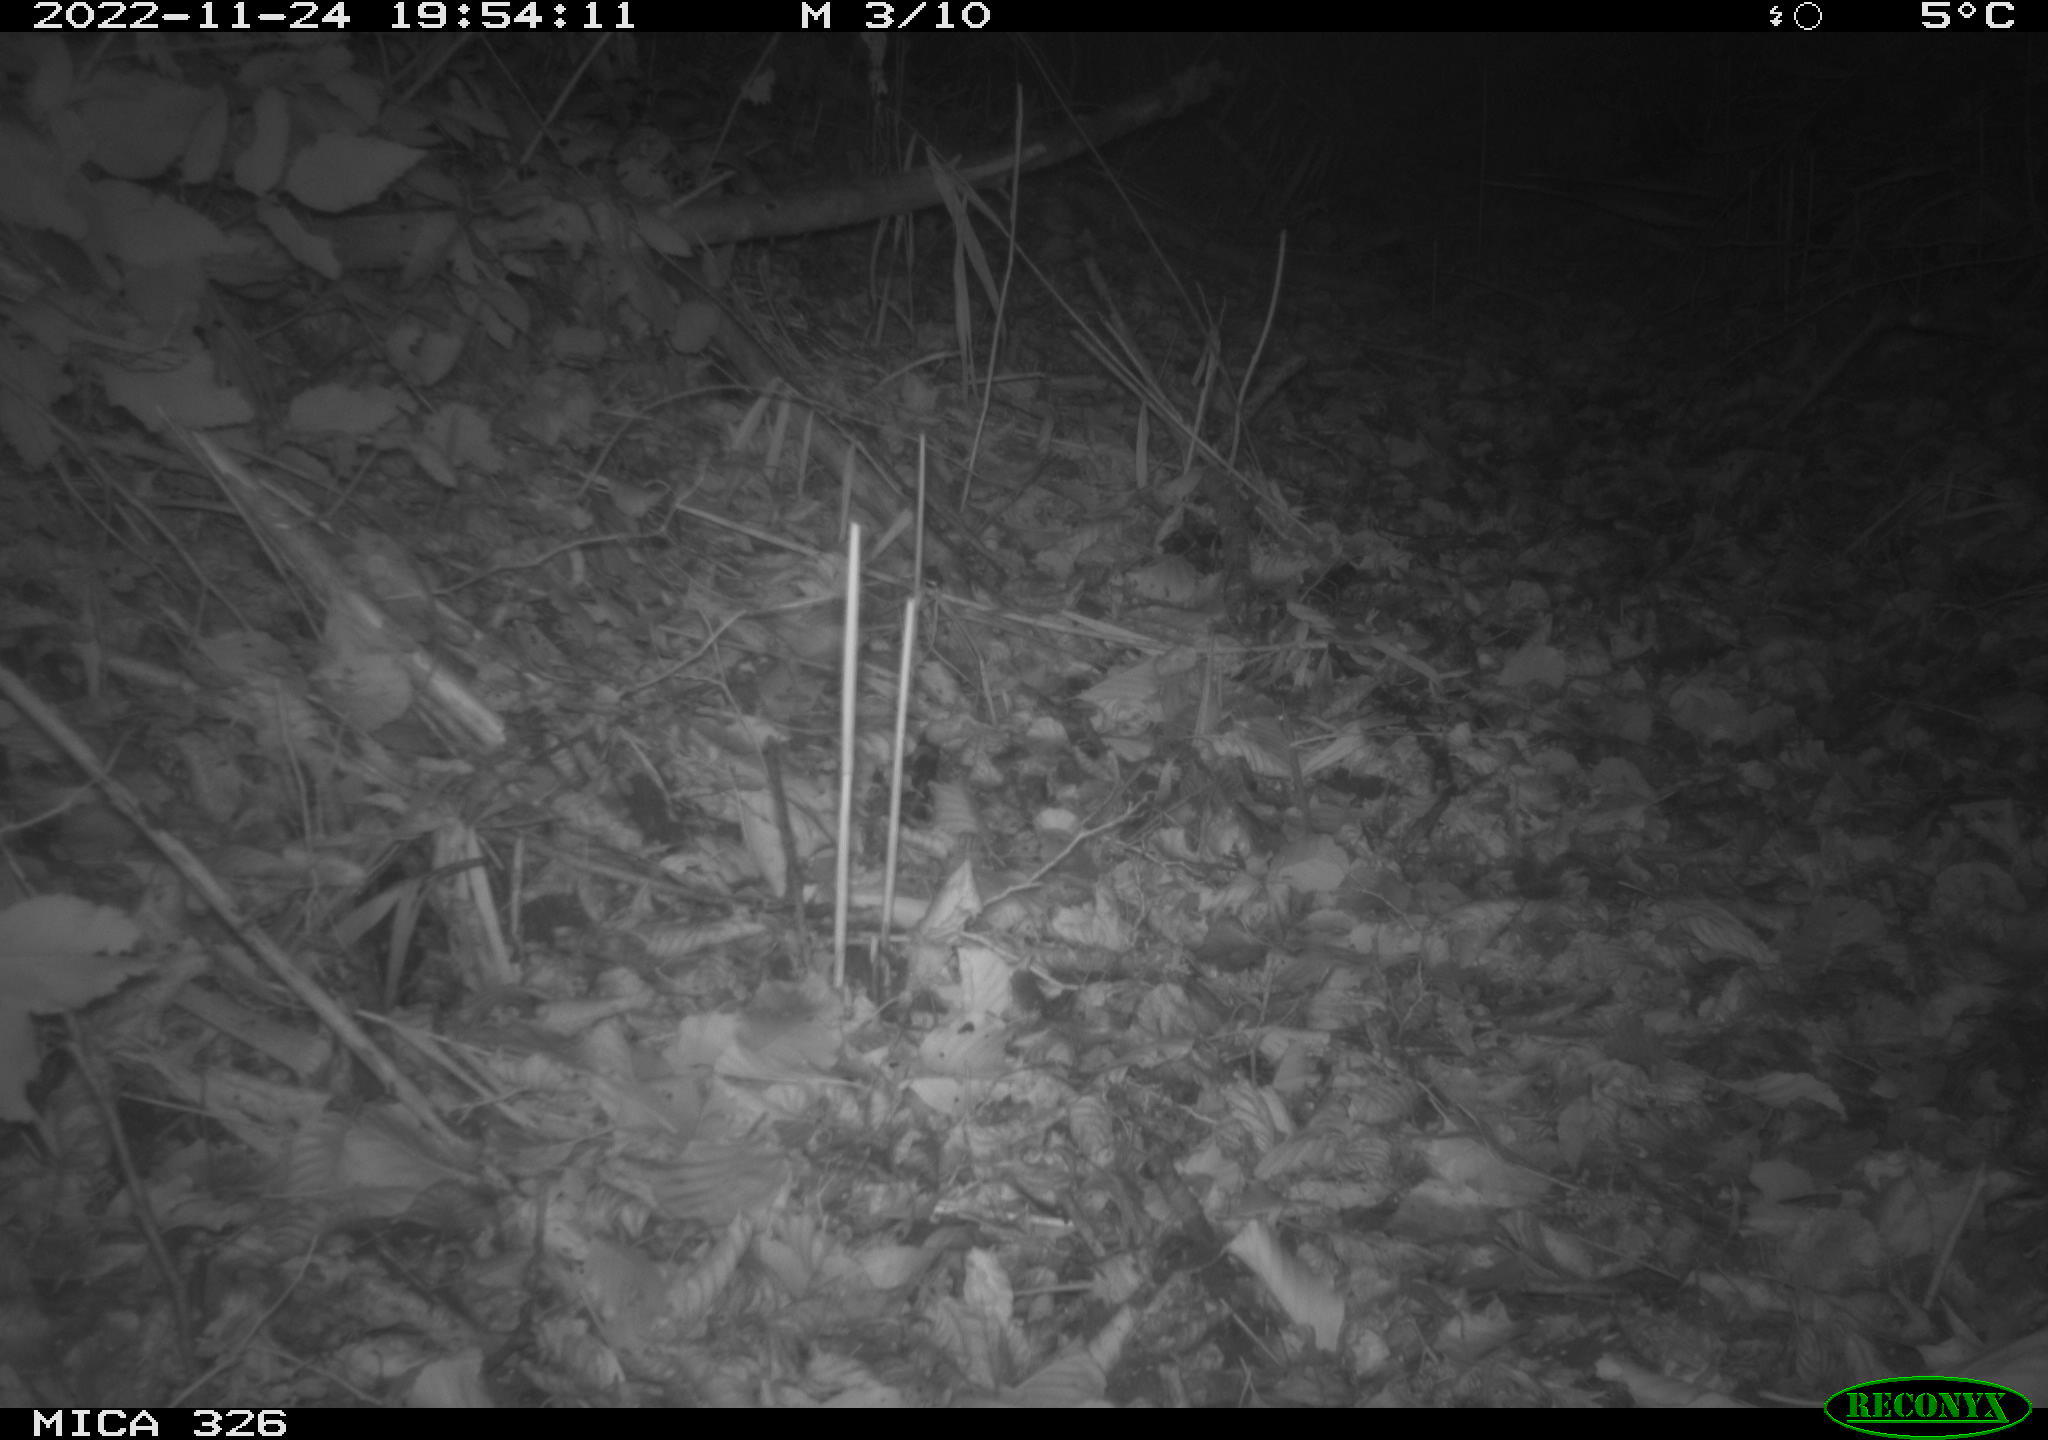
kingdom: Animalia
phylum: Chordata
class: Mammalia
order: Rodentia
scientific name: Rodentia
